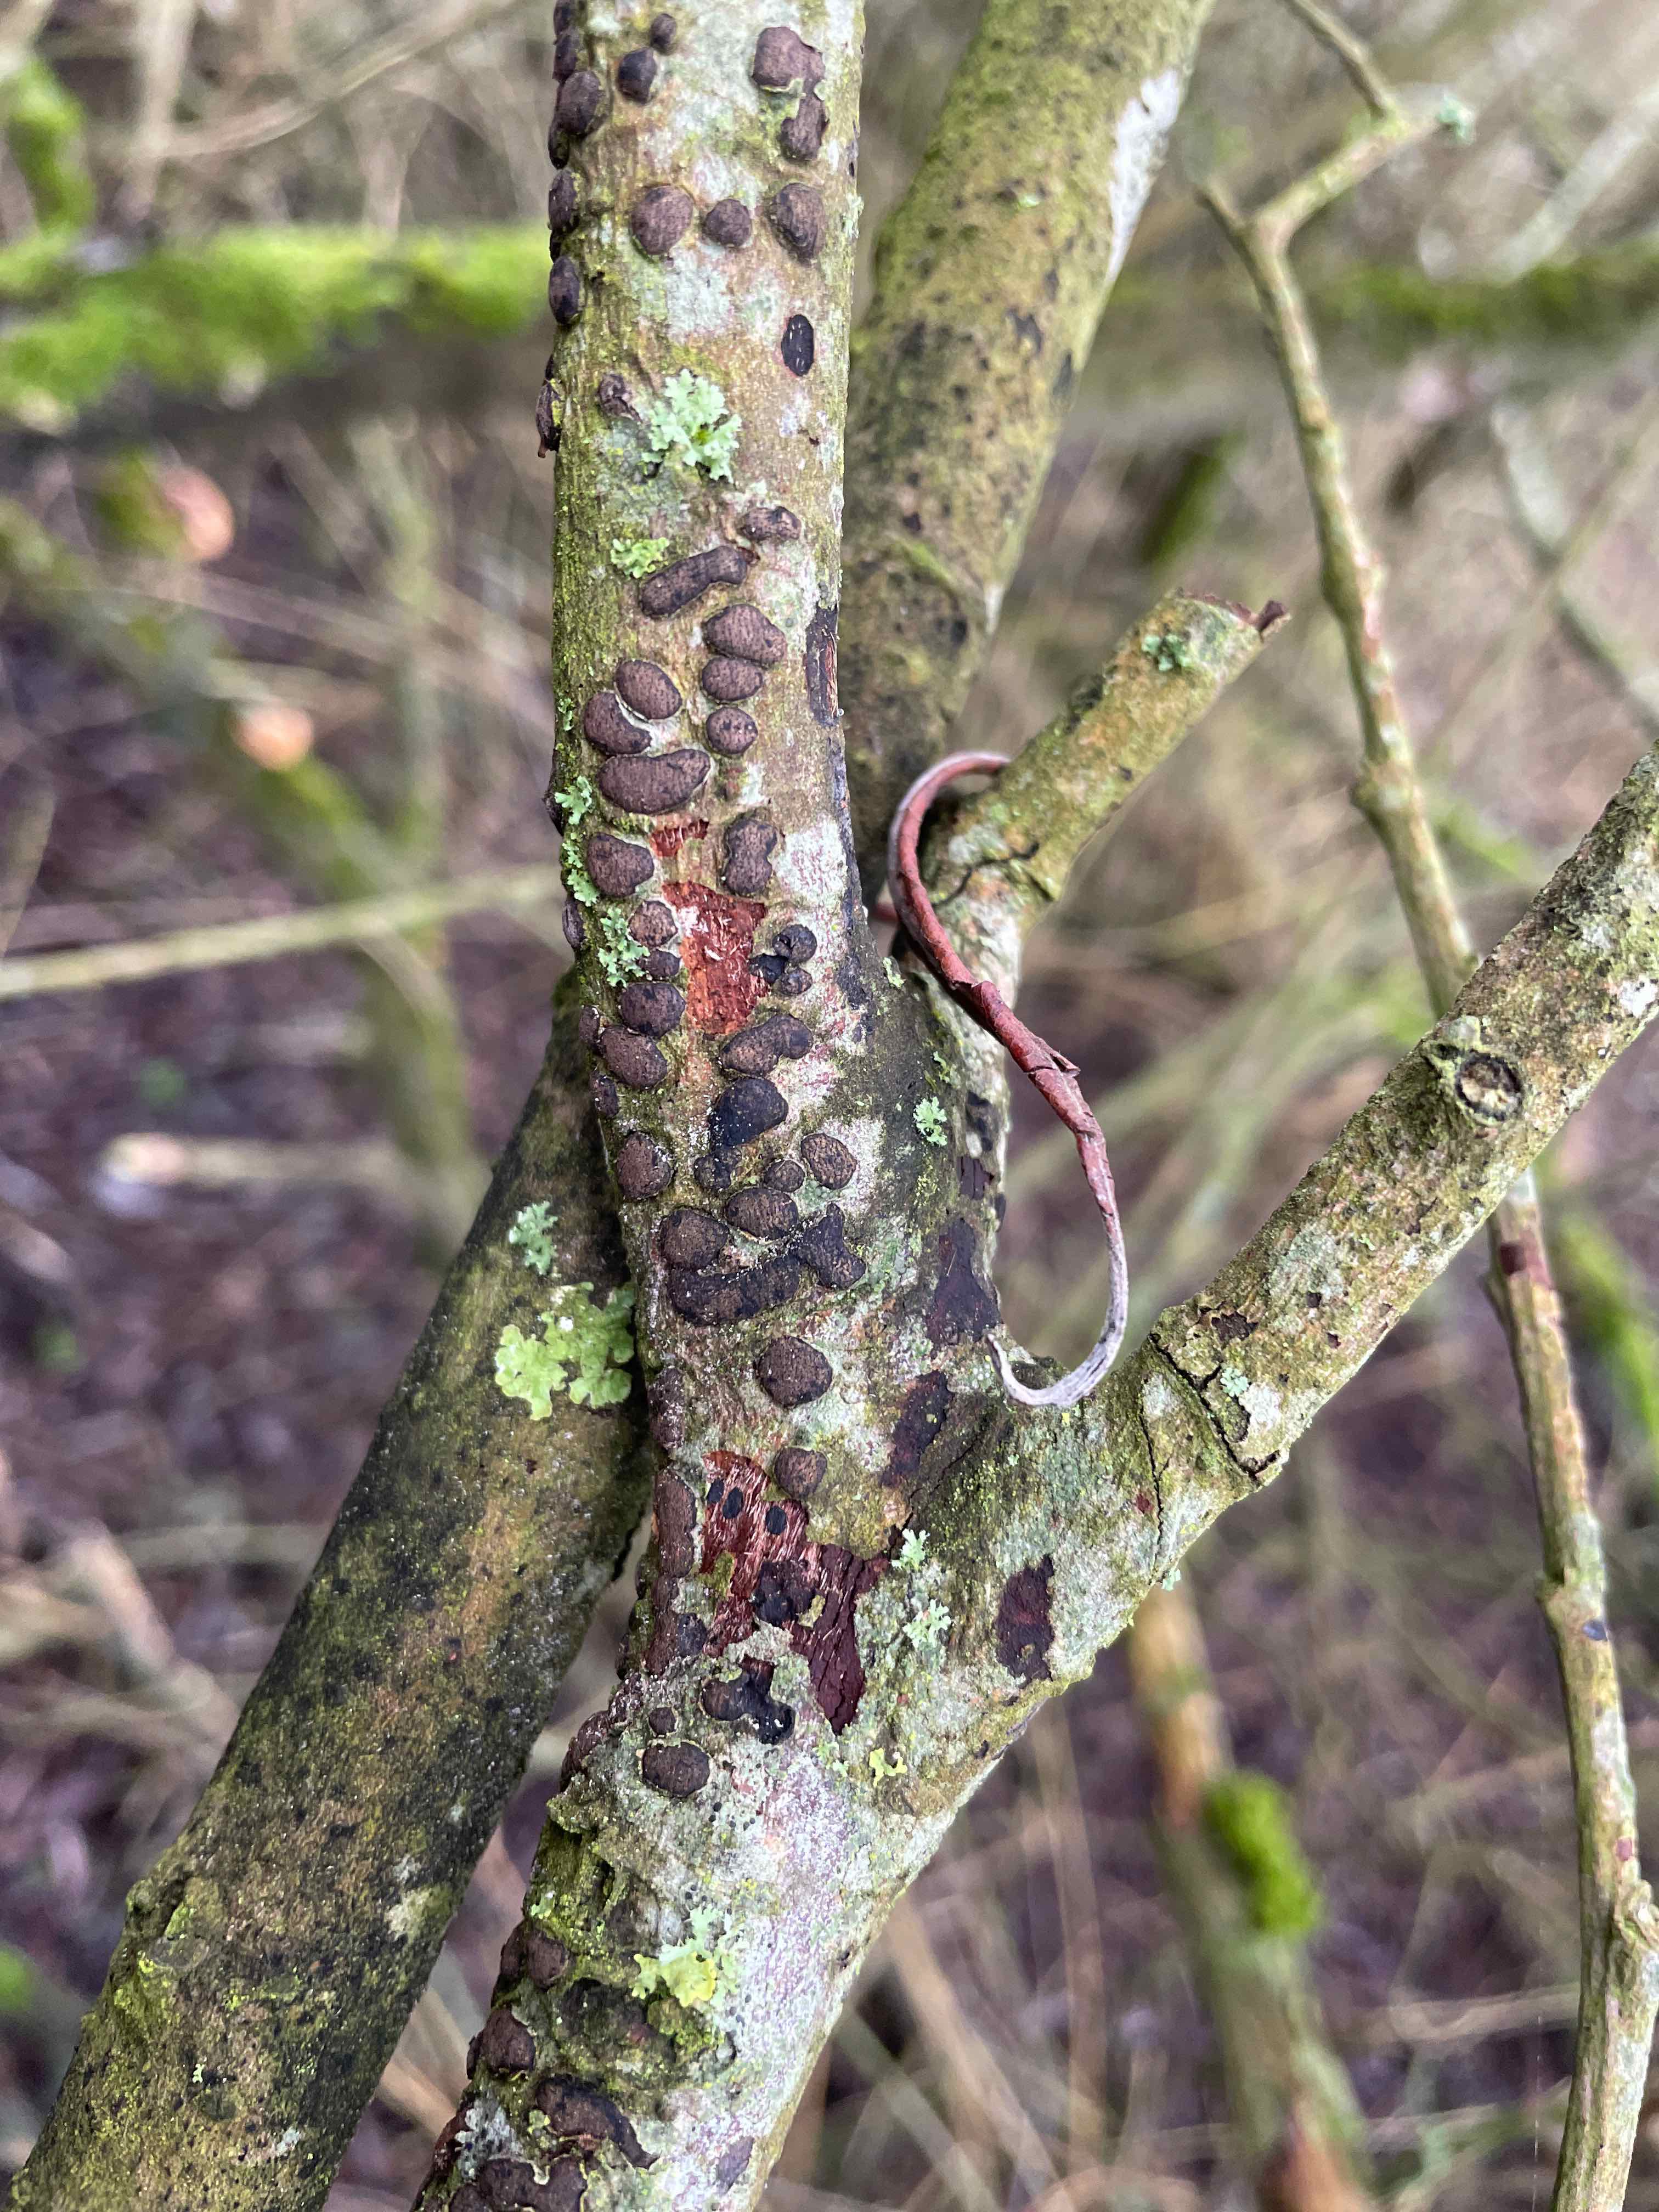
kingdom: Fungi
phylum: Ascomycota
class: Sordariomycetes
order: Xylariales
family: Diatrypaceae
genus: Diatrype
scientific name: Diatrype bullata
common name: pile-kulskorpe
